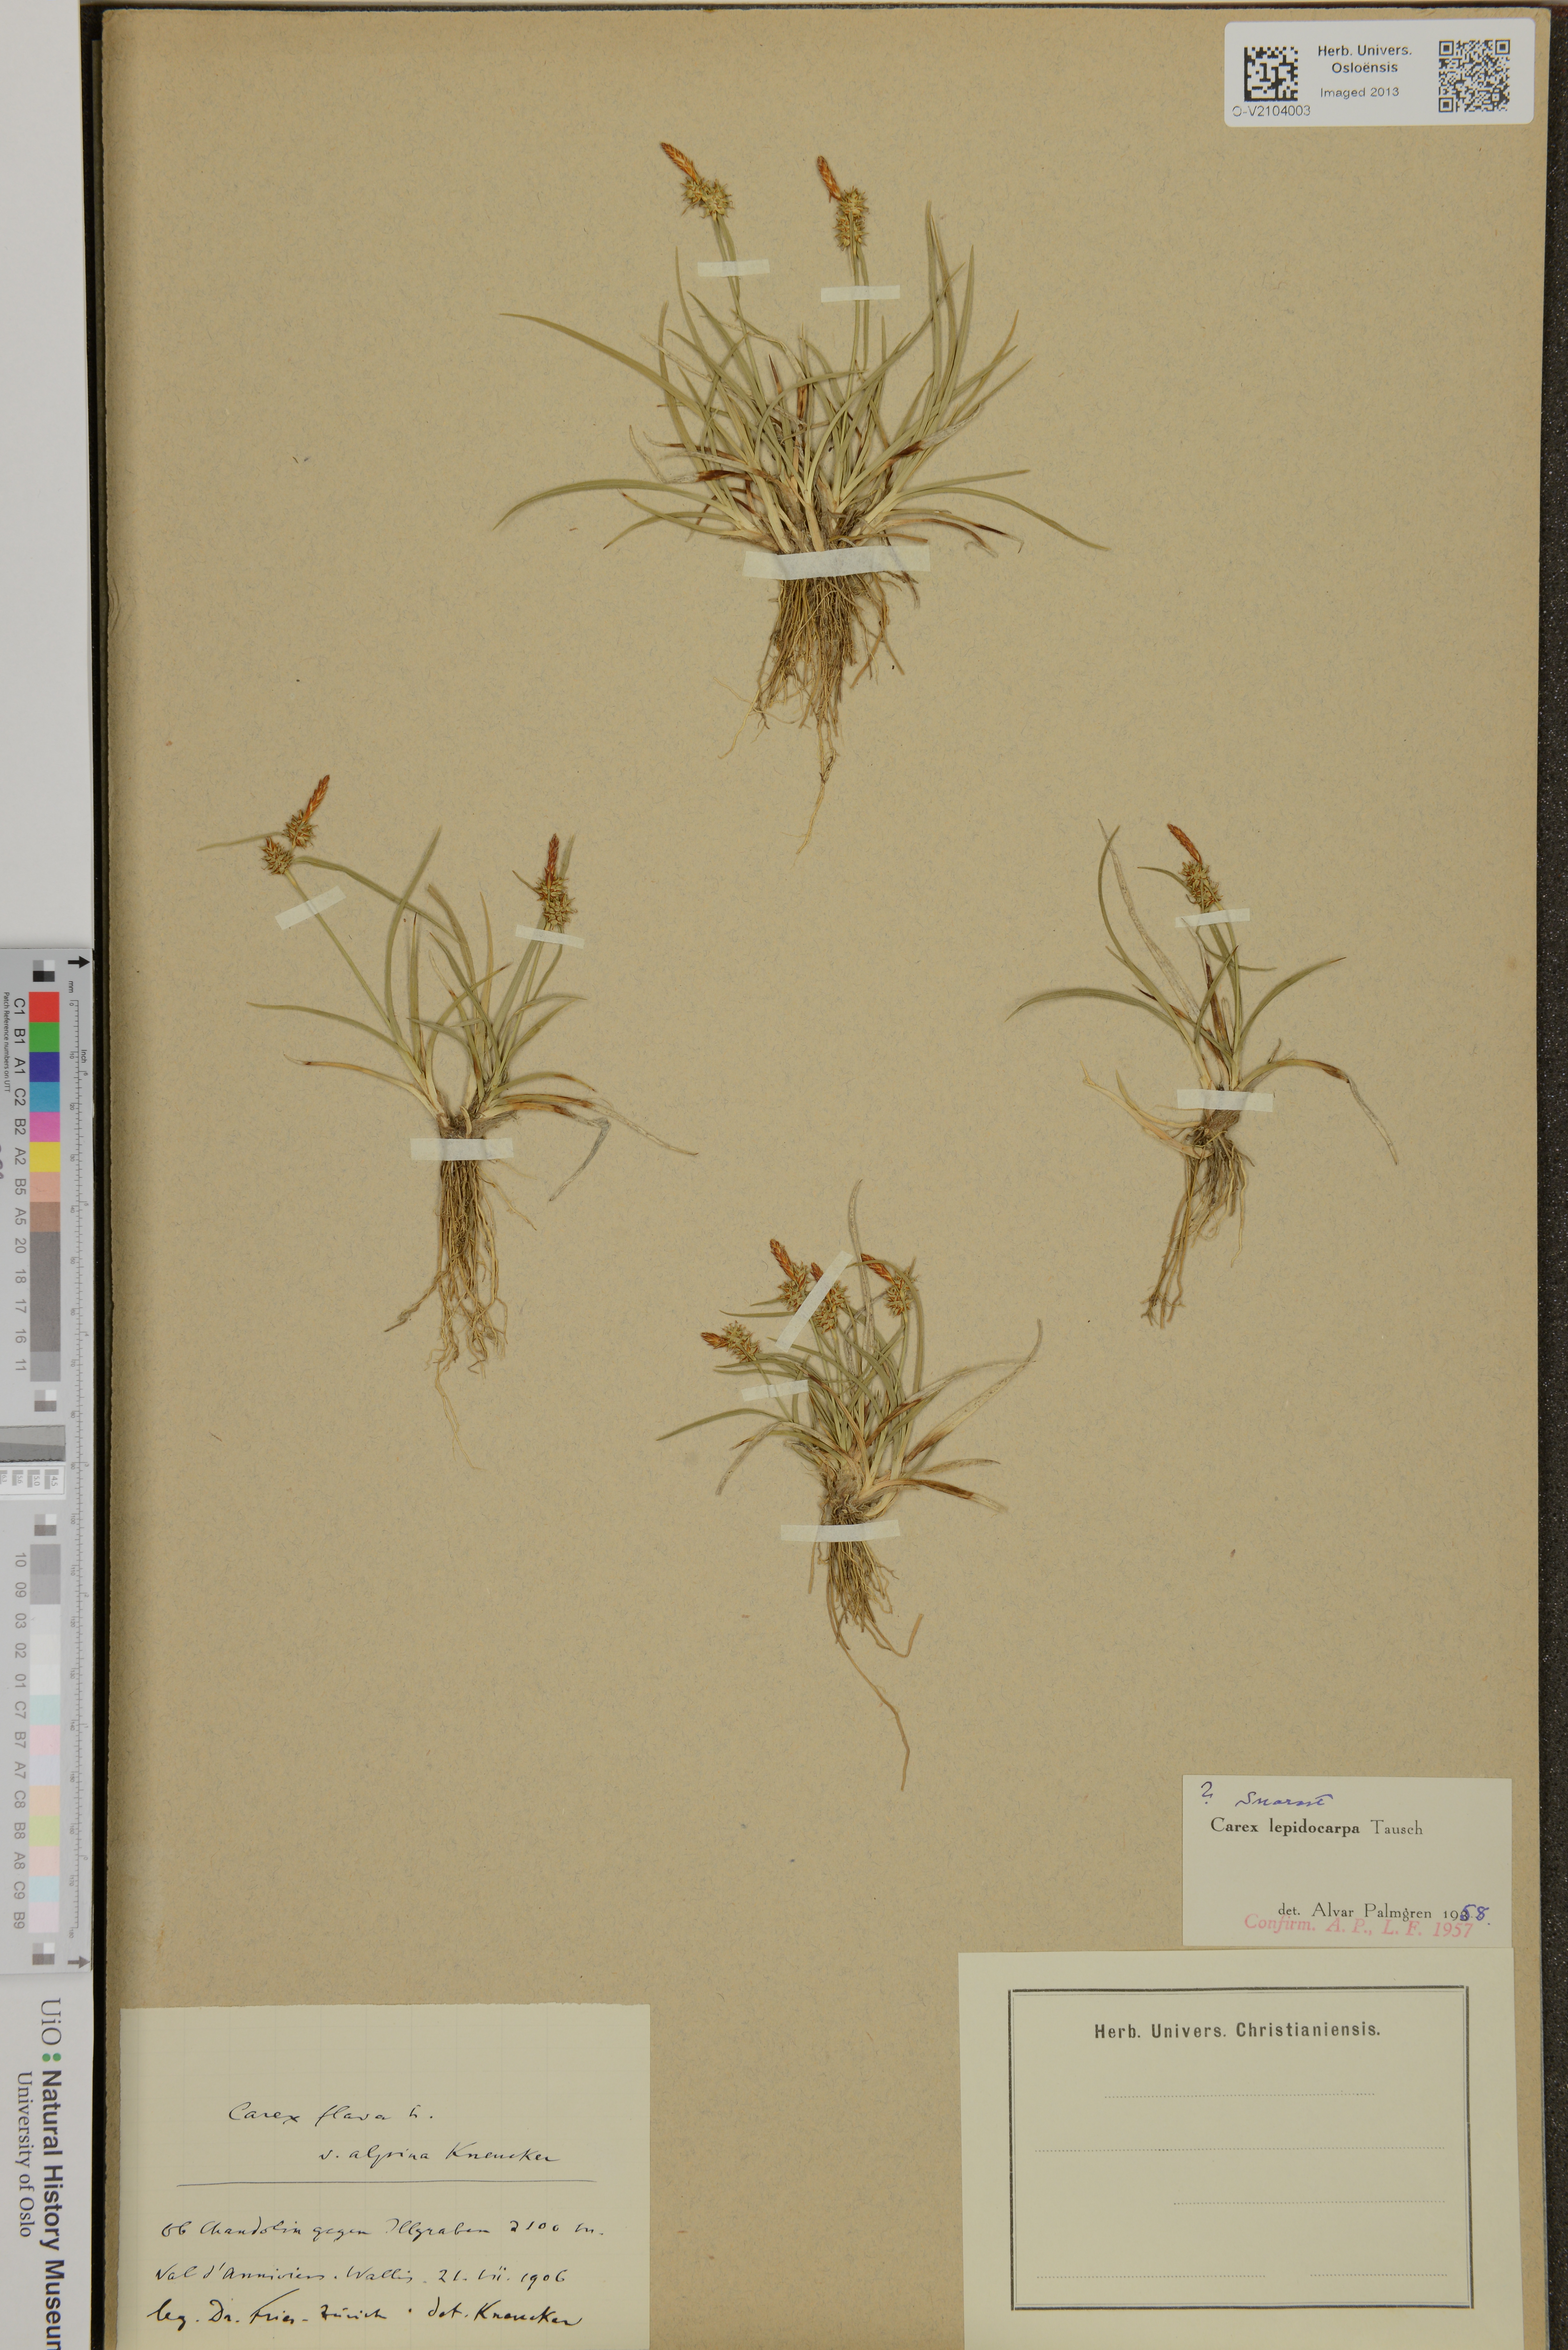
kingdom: Plantae
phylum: Tracheophyta
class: Liliopsida
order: Poales
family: Cyperaceae
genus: Carex
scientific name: Carex lepidocarpa
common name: Long-stalked yellow-sedge
